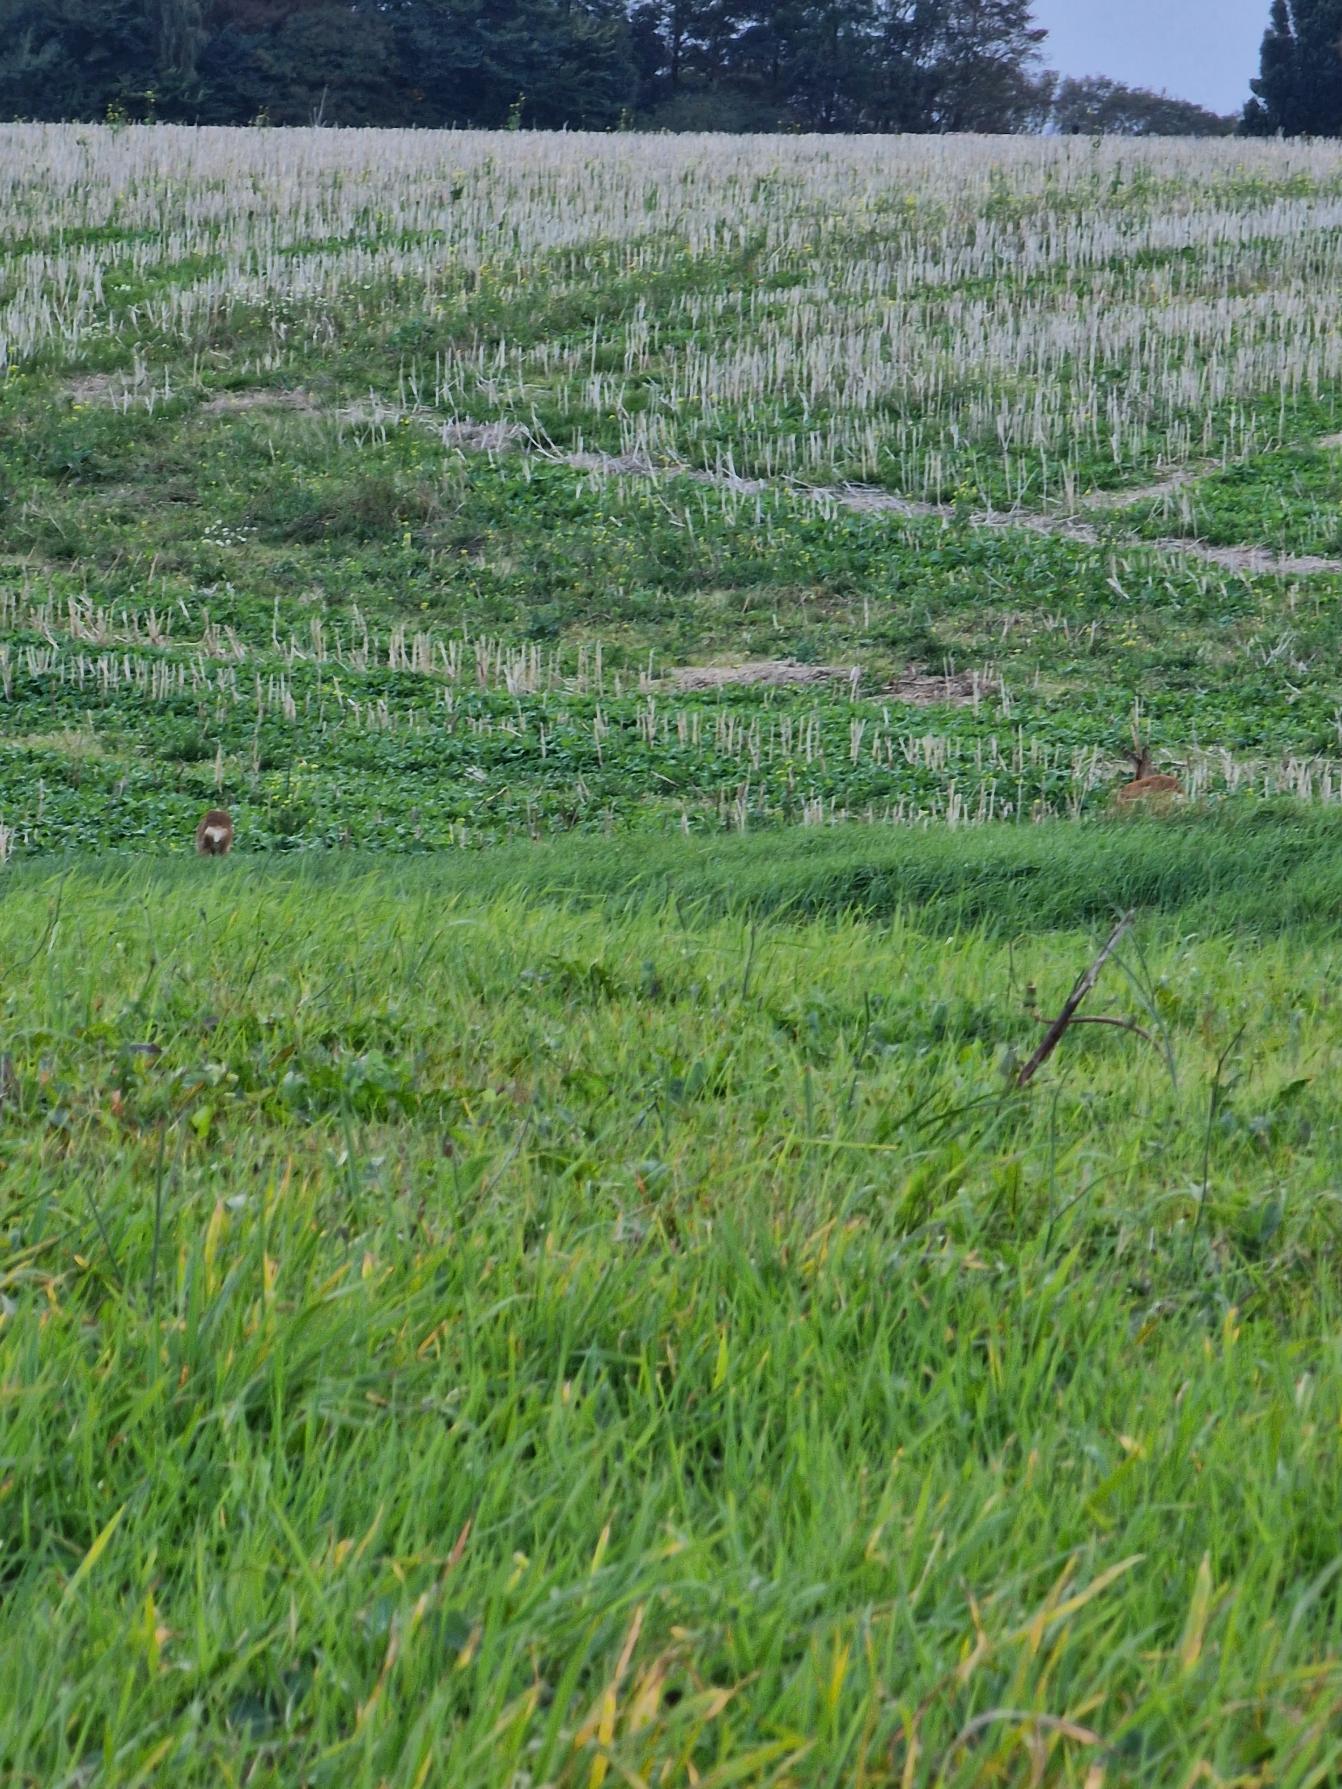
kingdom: Animalia
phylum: Chordata
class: Mammalia
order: Artiodactyla
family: Cervidae
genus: Capreolus
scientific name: Capreolus capreolus
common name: Rådyr
